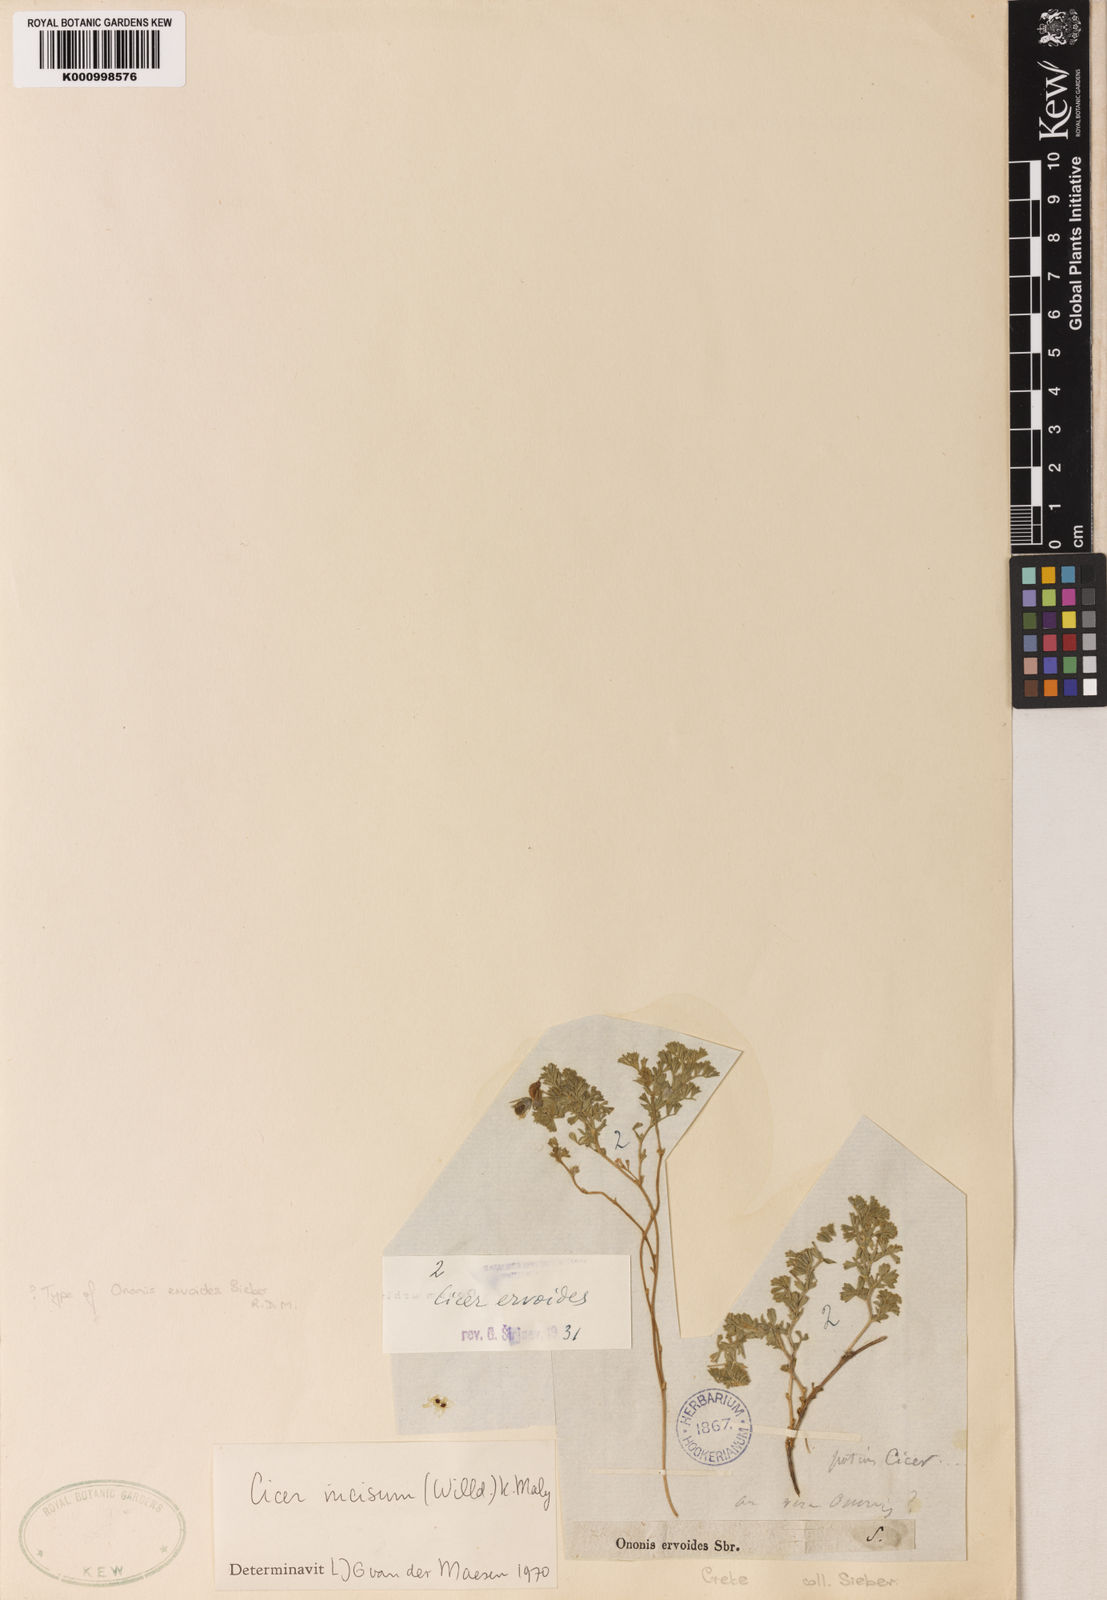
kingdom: Plantae
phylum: Tracheophyta
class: Magnoliopsida
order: Fabales
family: Fabaceae
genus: Cicer
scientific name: Cicer
